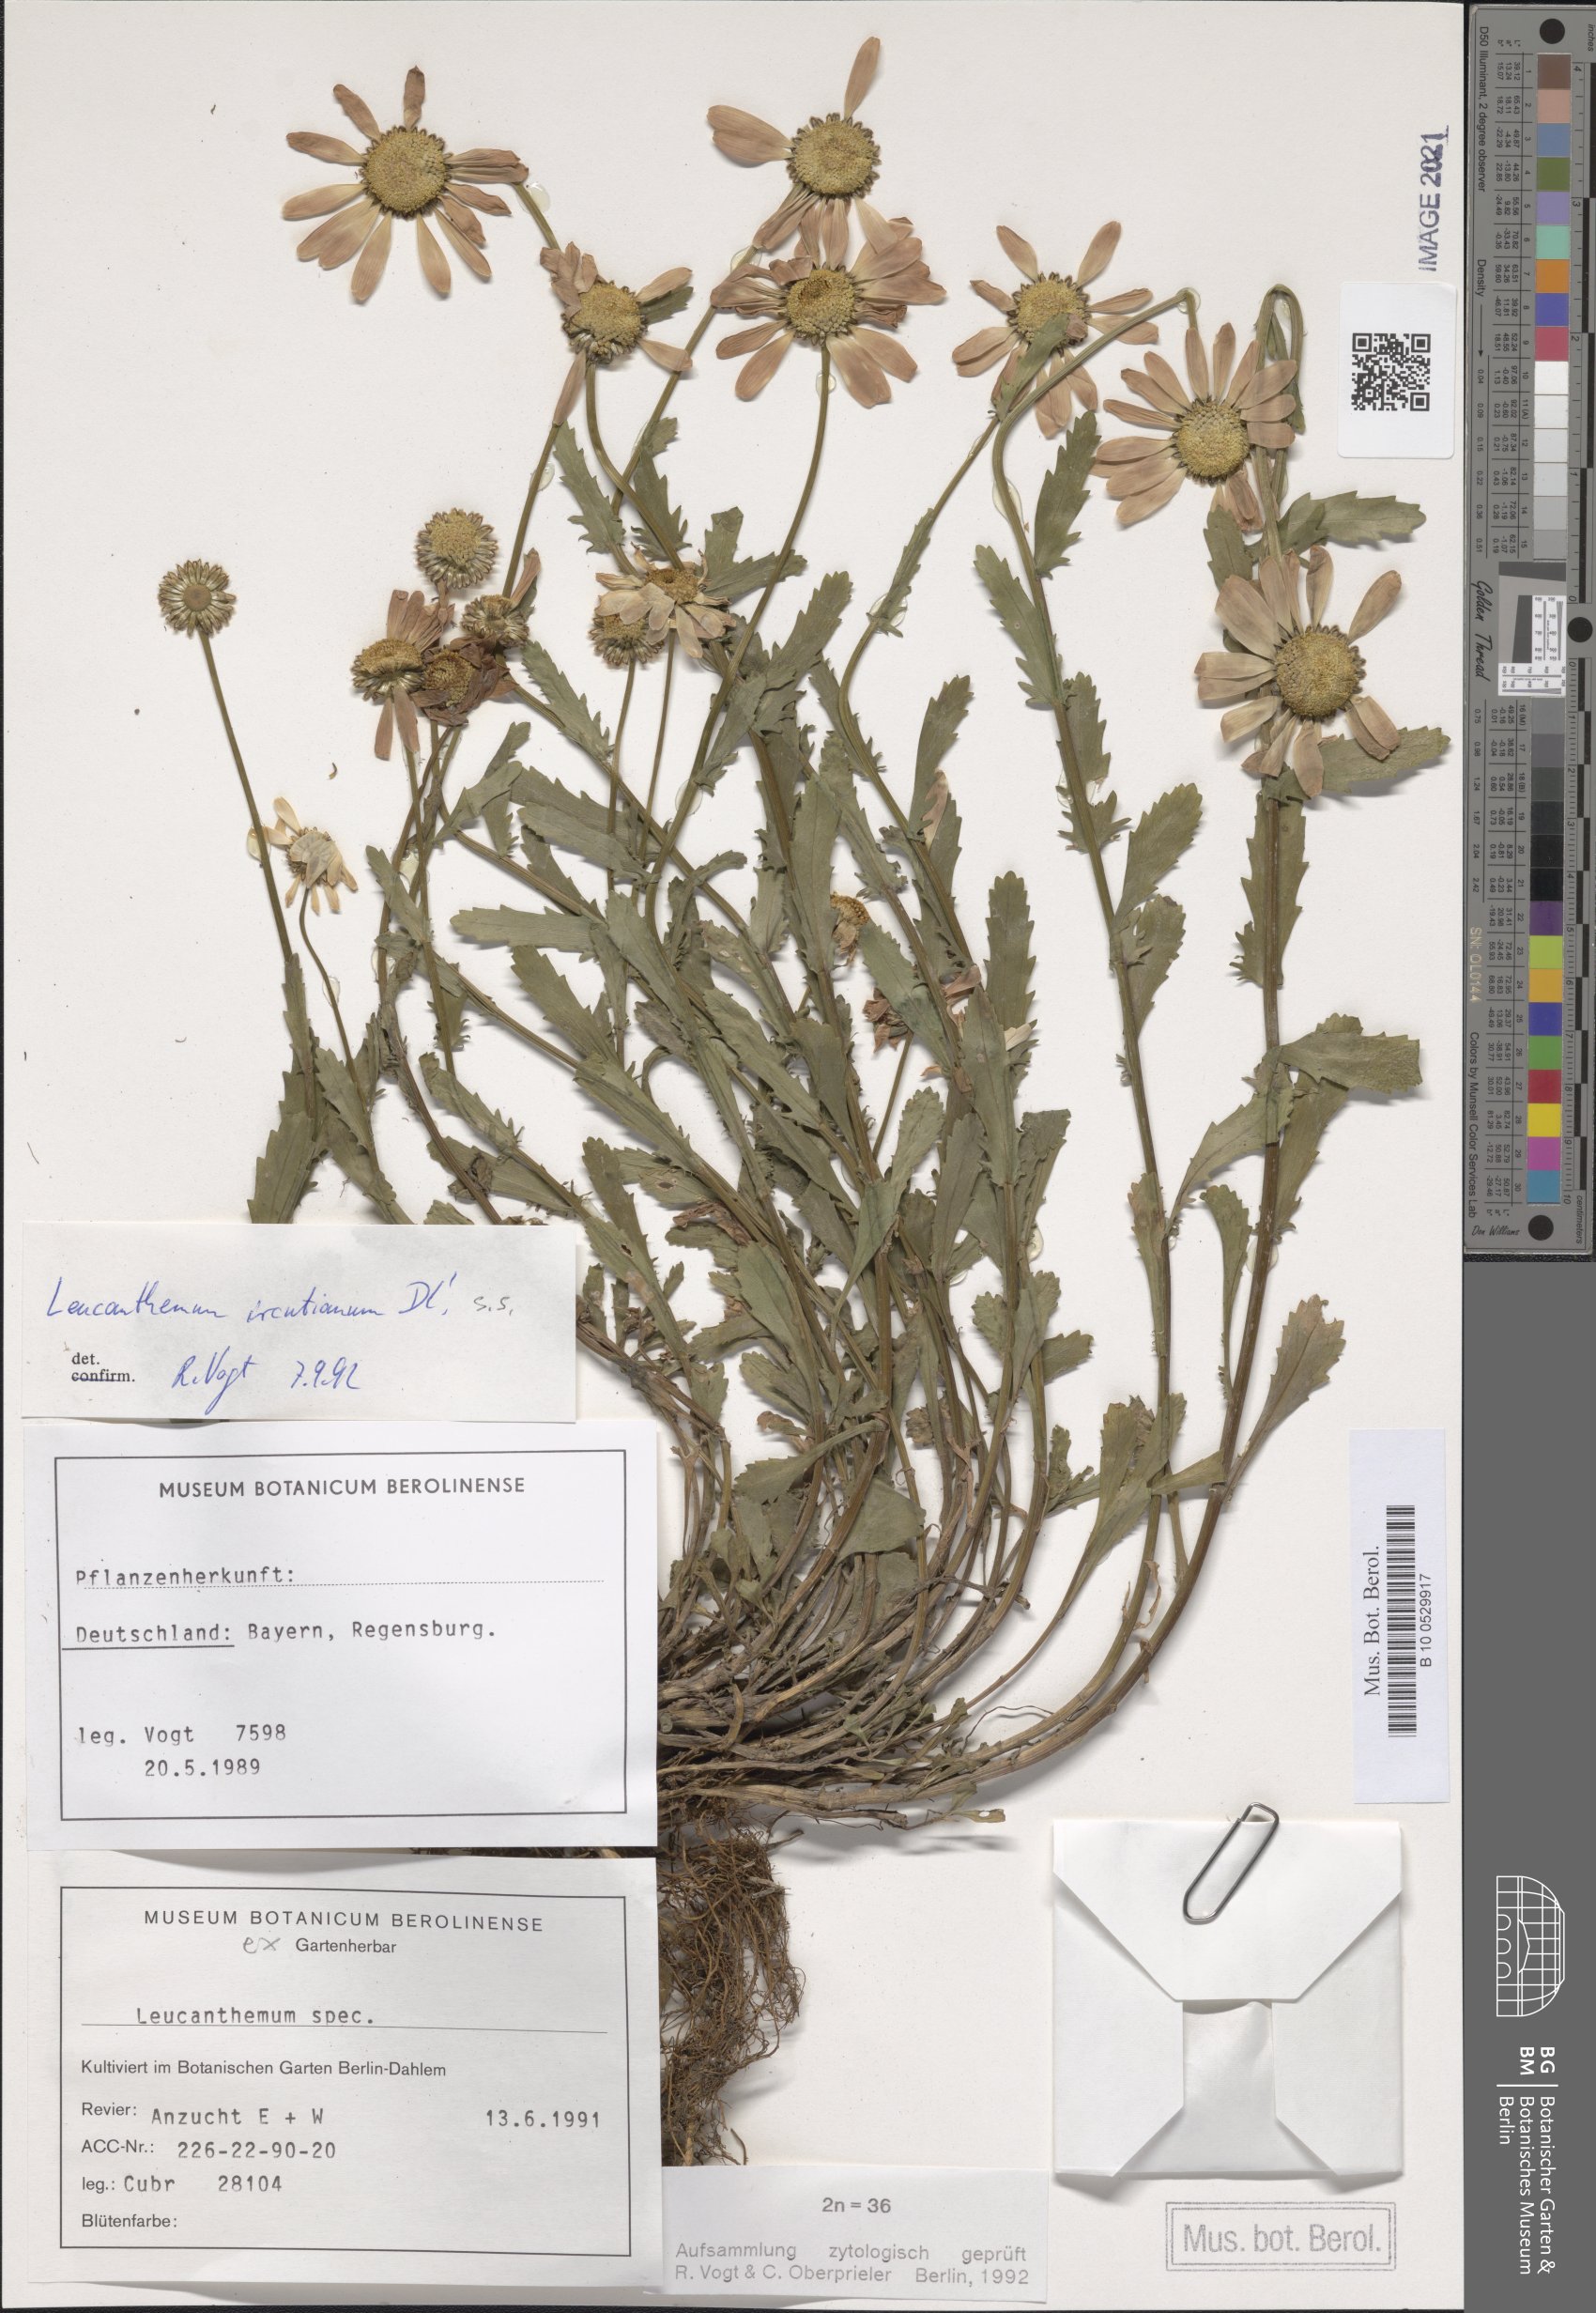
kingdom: Plantae
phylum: Tracheophyta
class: Magnoliopsida
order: Asterales
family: Asteraceae
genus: Leucanthemum
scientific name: Leucanthemum ircutianum
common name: Daisy
